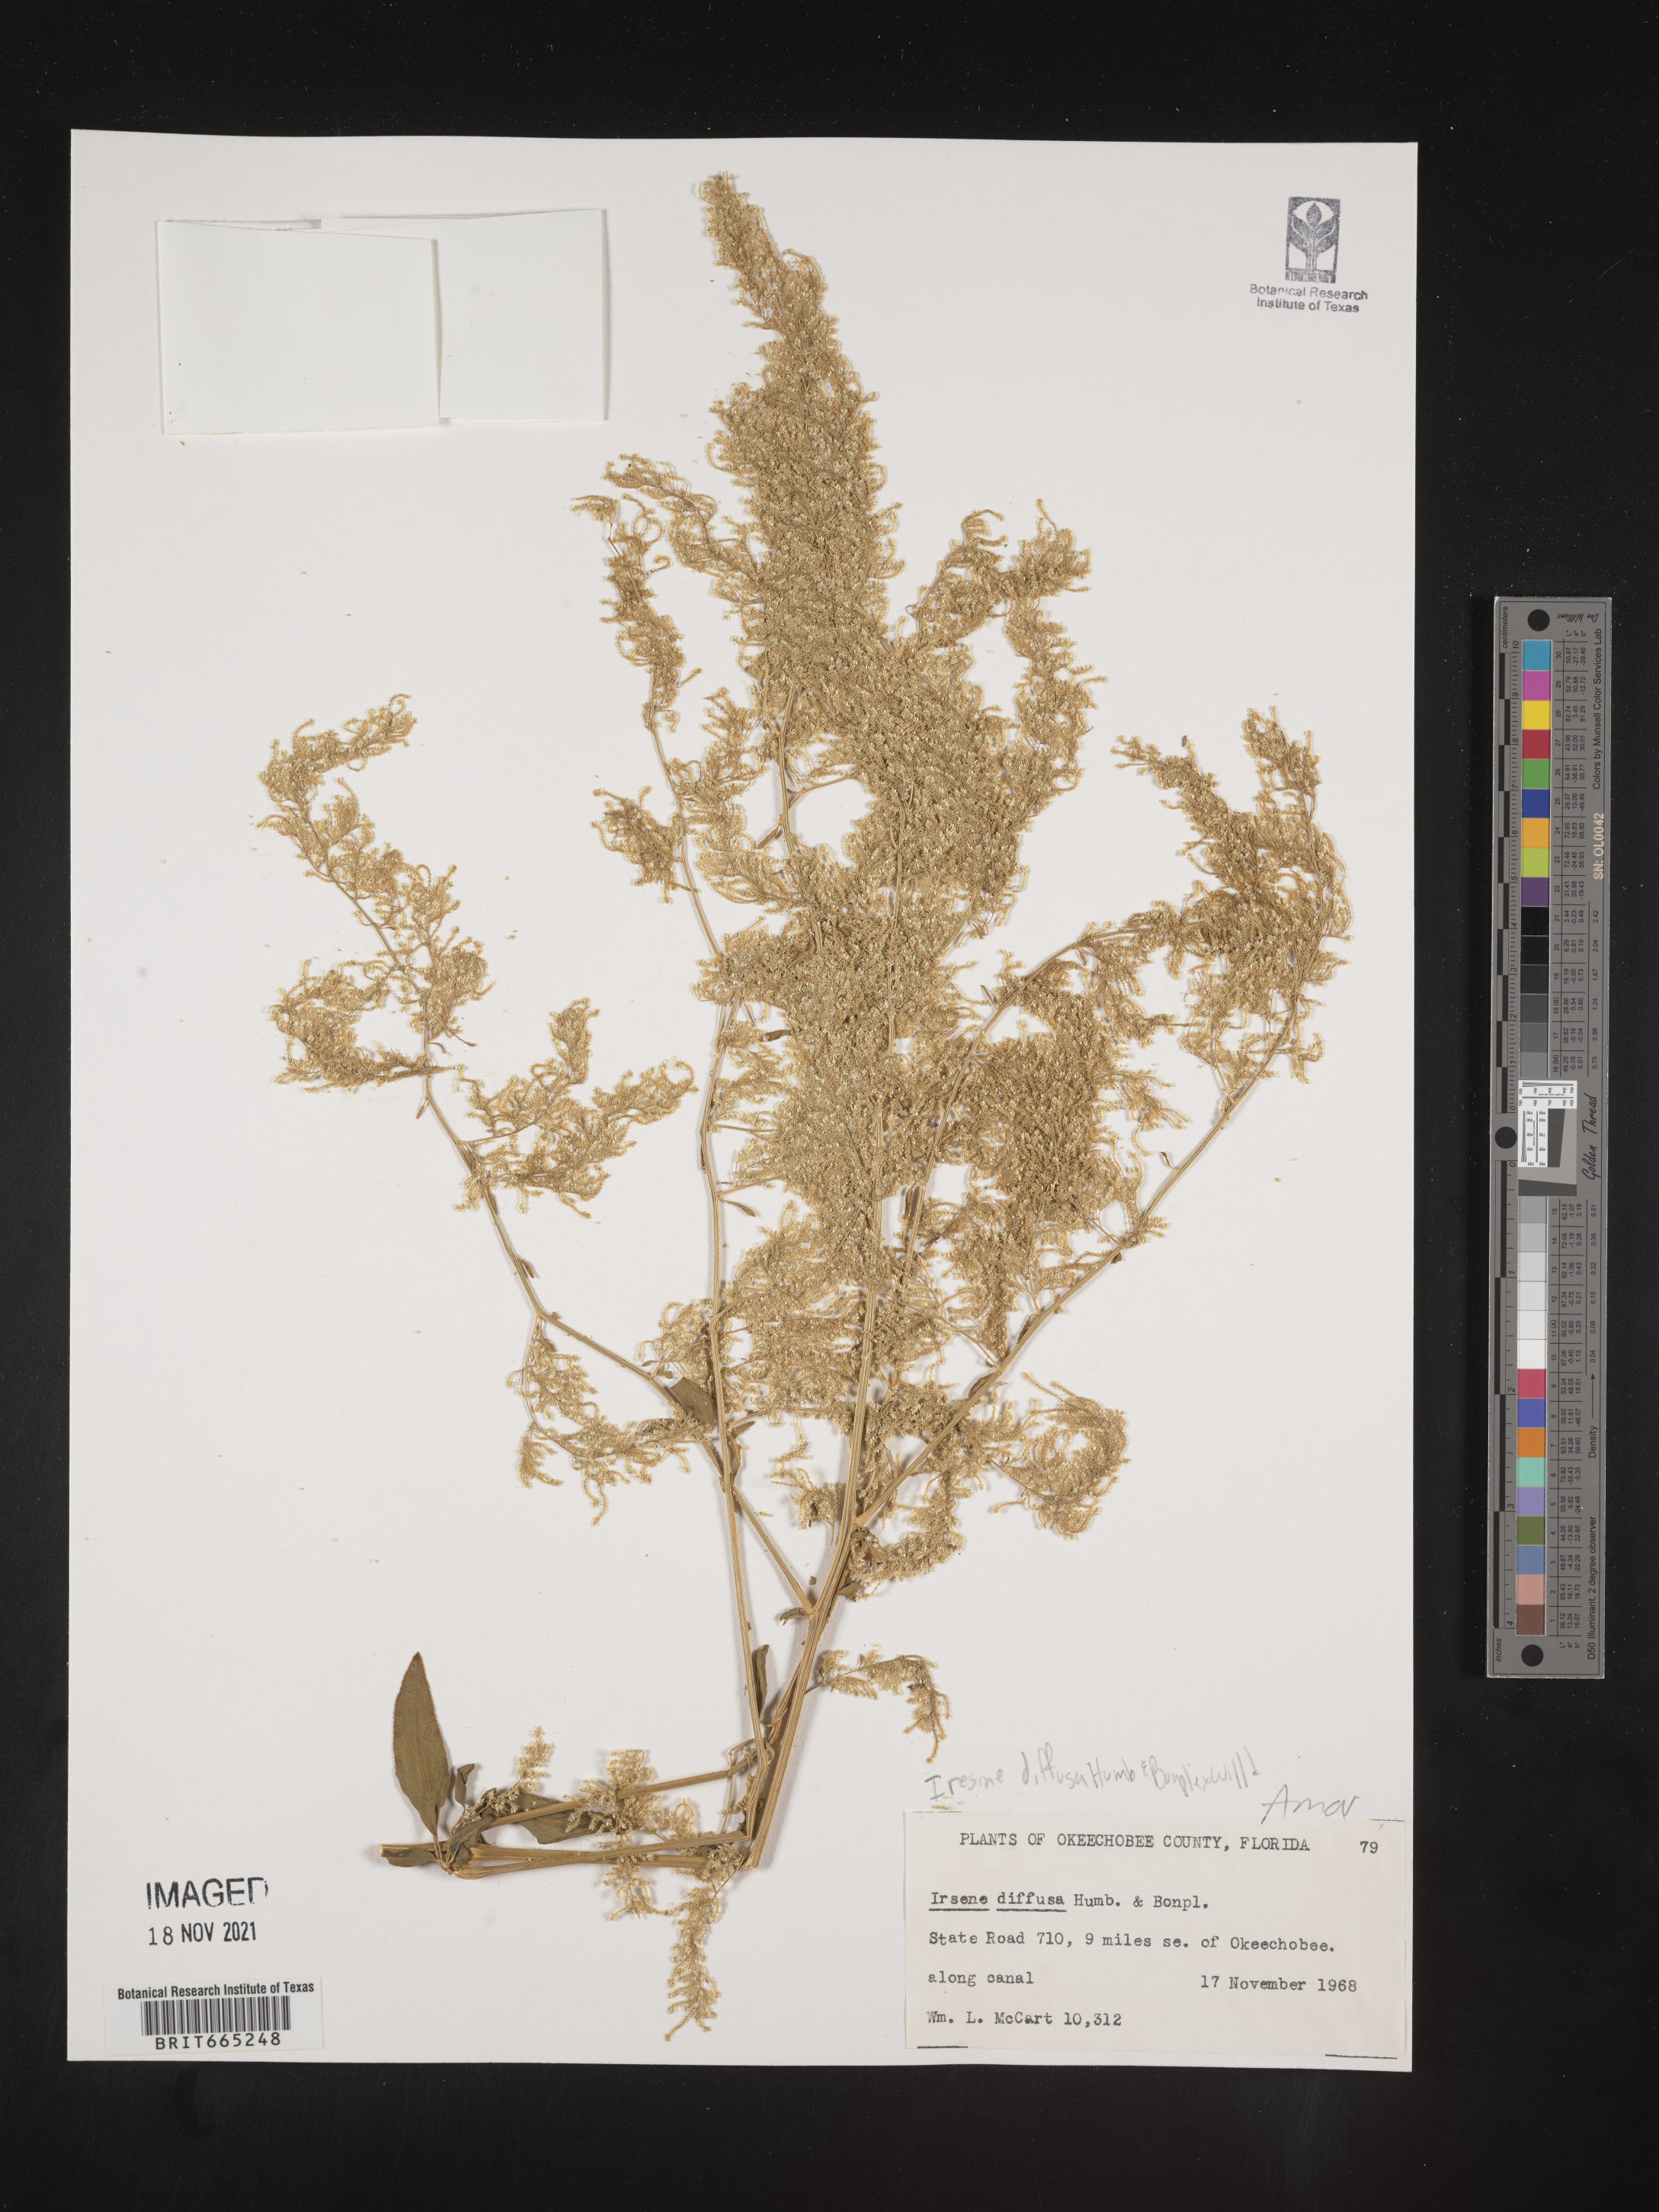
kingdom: Plantae
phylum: Tracheophyta
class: Magnoliopsida
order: Caryophyllales
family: Amaranthaceae
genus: Iresine
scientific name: Iresine
